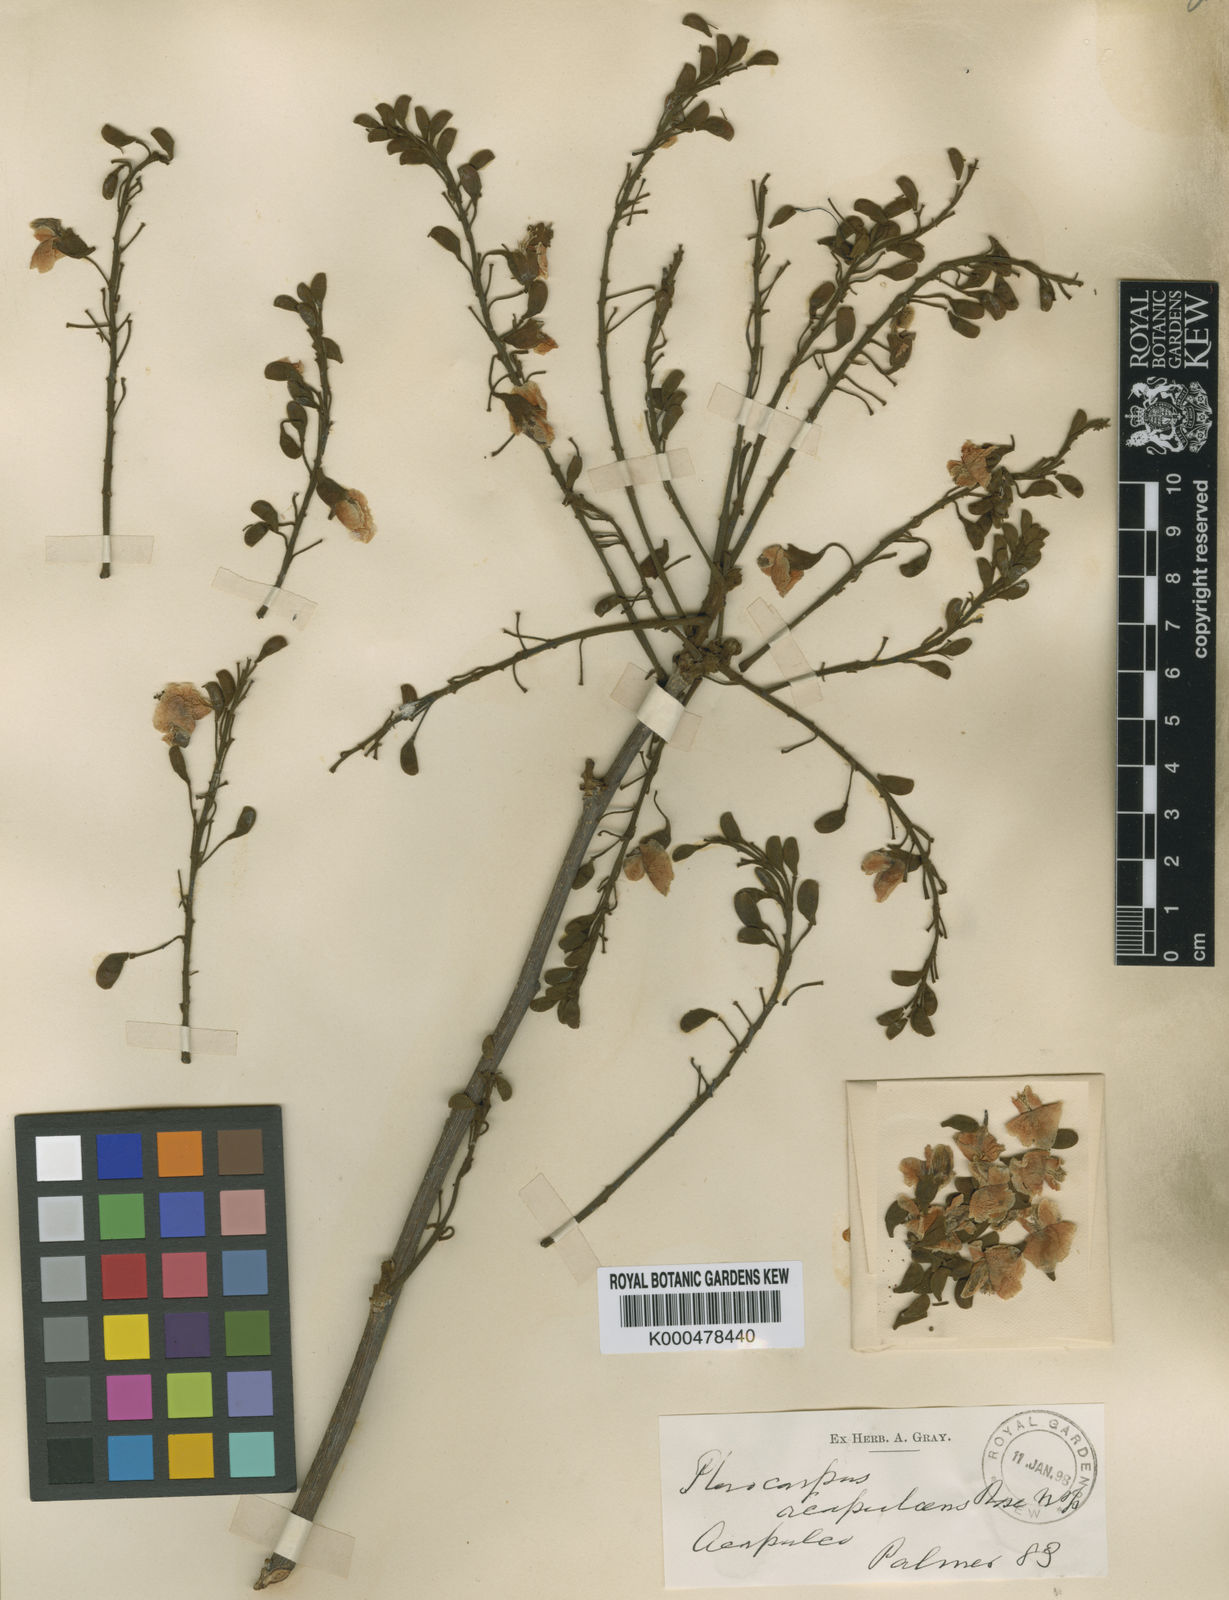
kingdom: Plantae
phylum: Tracheophyta
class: Magnoliopsida
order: Fabales
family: Fabaceae
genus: Pterocarpus
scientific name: Pterocarpus acapulcensis
